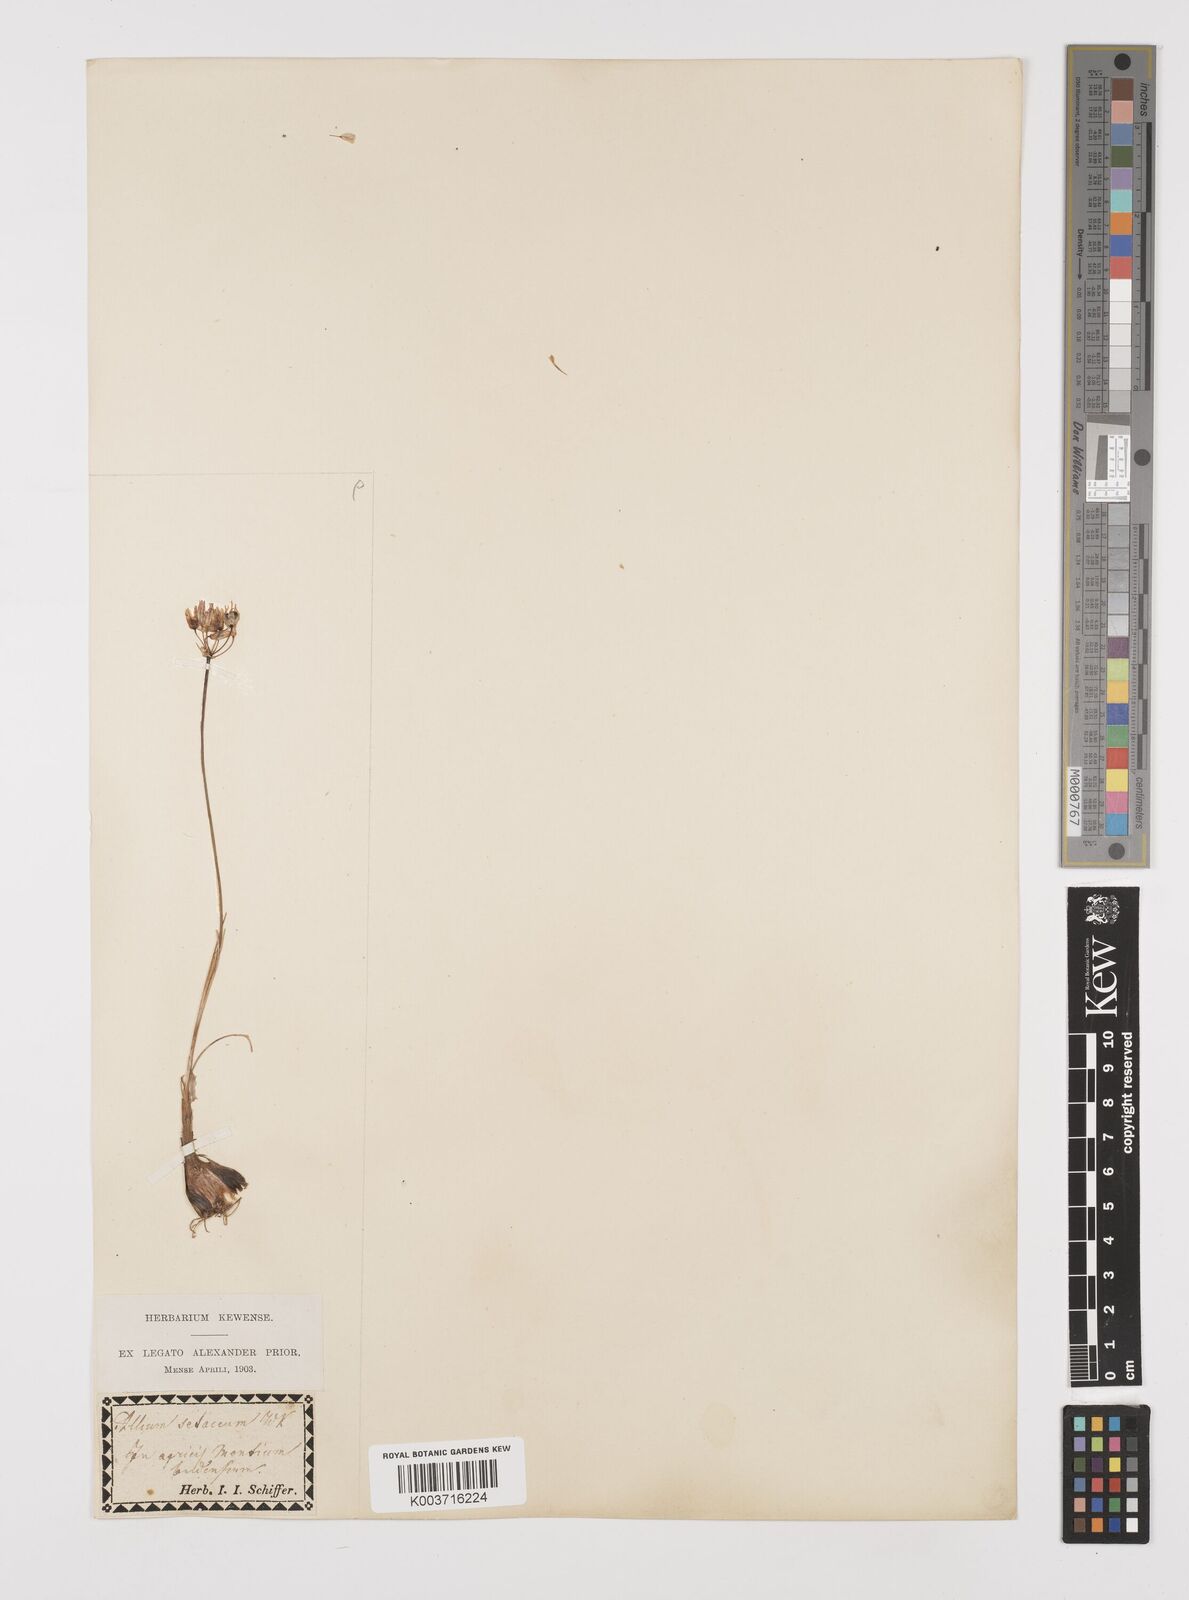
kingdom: Plantae
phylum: Tracheophyta
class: Liliopsida
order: Asparagales
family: Amaryllidaceae
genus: Allium
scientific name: Allium moschatum
